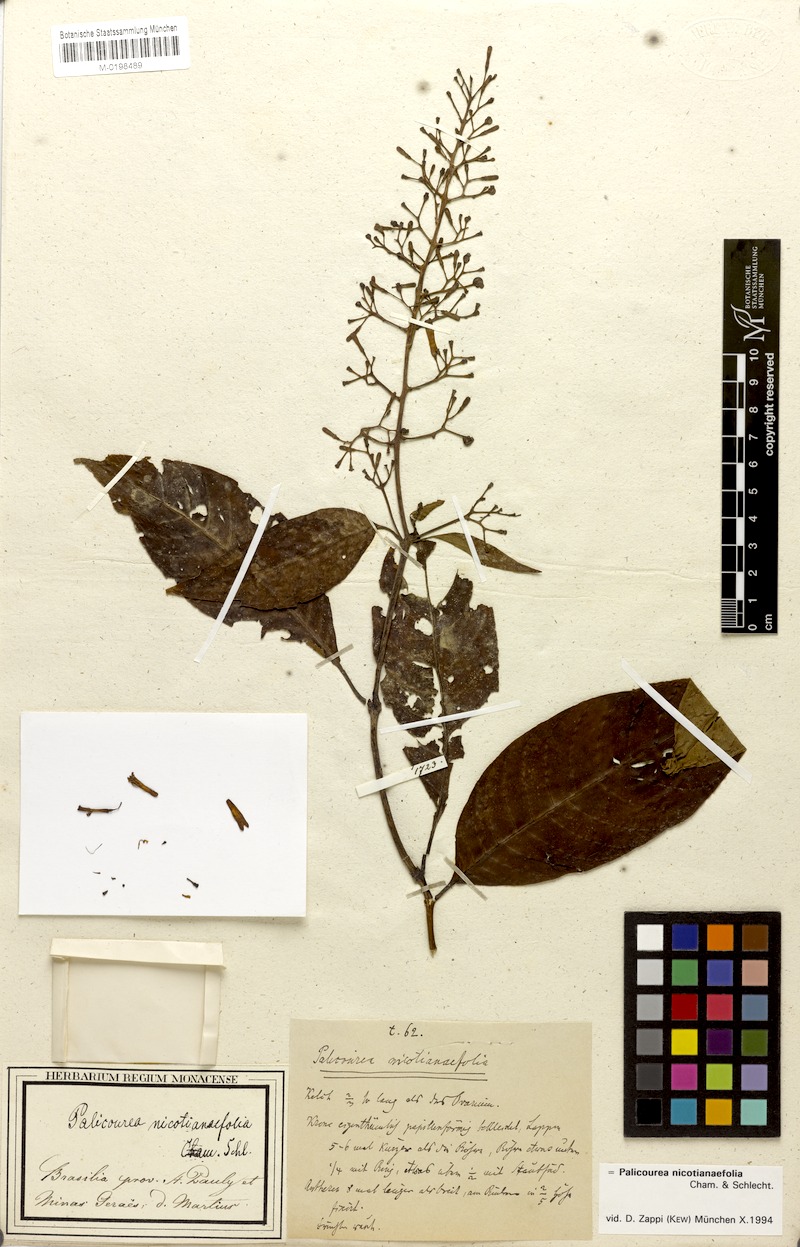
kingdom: Plantae
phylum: Tracheophyta
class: Magnoliopsida
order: Gentianales
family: Rubiaceae
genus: Palicourea
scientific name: Palicourea macrobotrys
